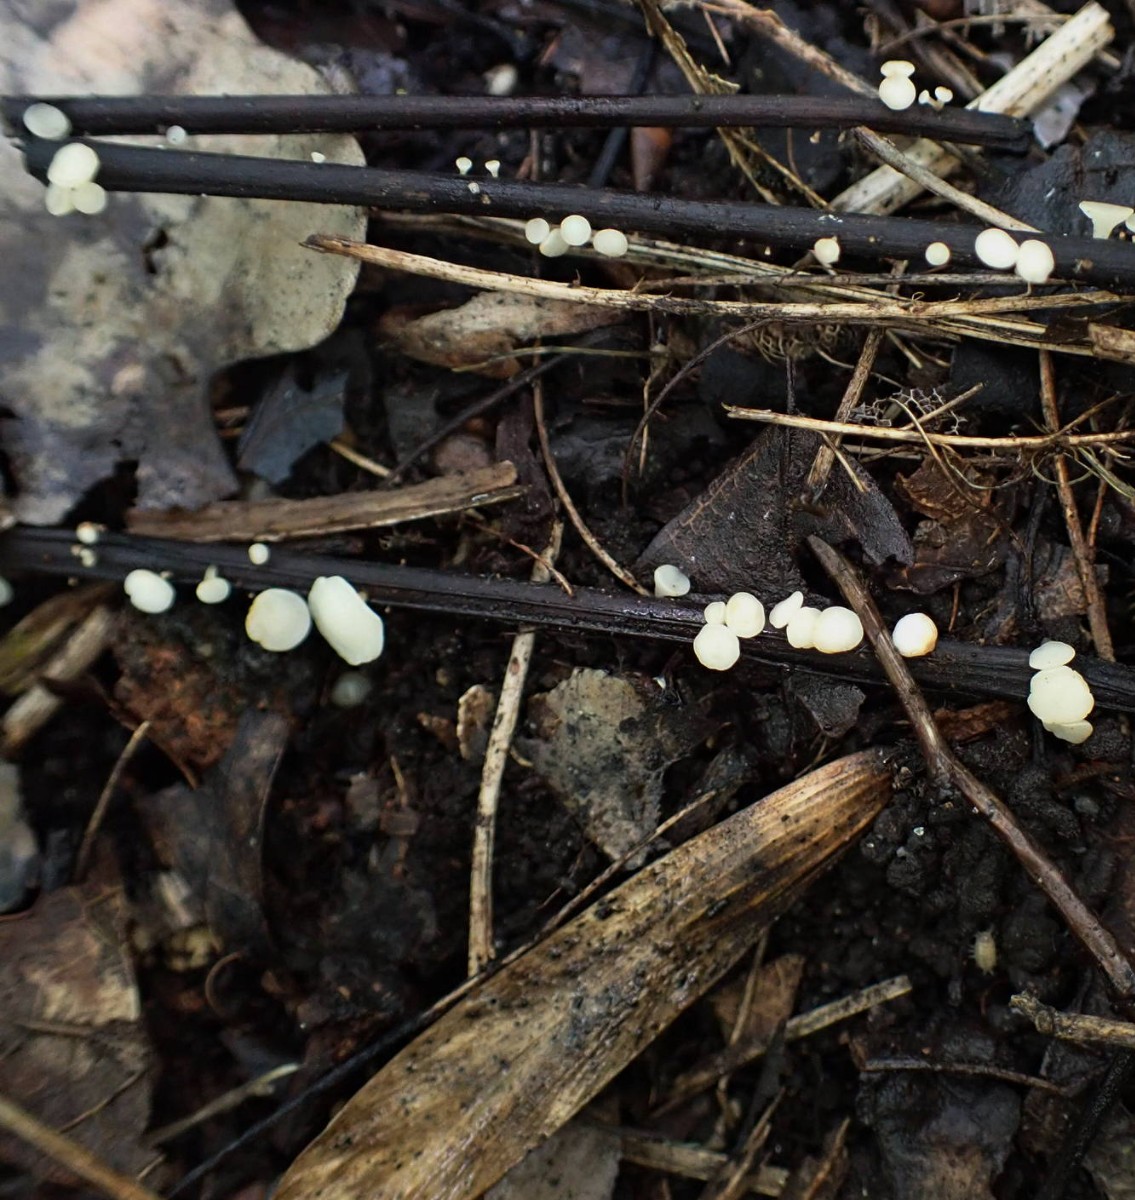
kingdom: Fungi
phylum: Ascomycota
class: Leotiomycetes
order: Helotiales
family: Helotiaceae
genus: Hymenoscyphus
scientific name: Hymenoscyphus fraxineus
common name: asketoptørre-stilkskive
